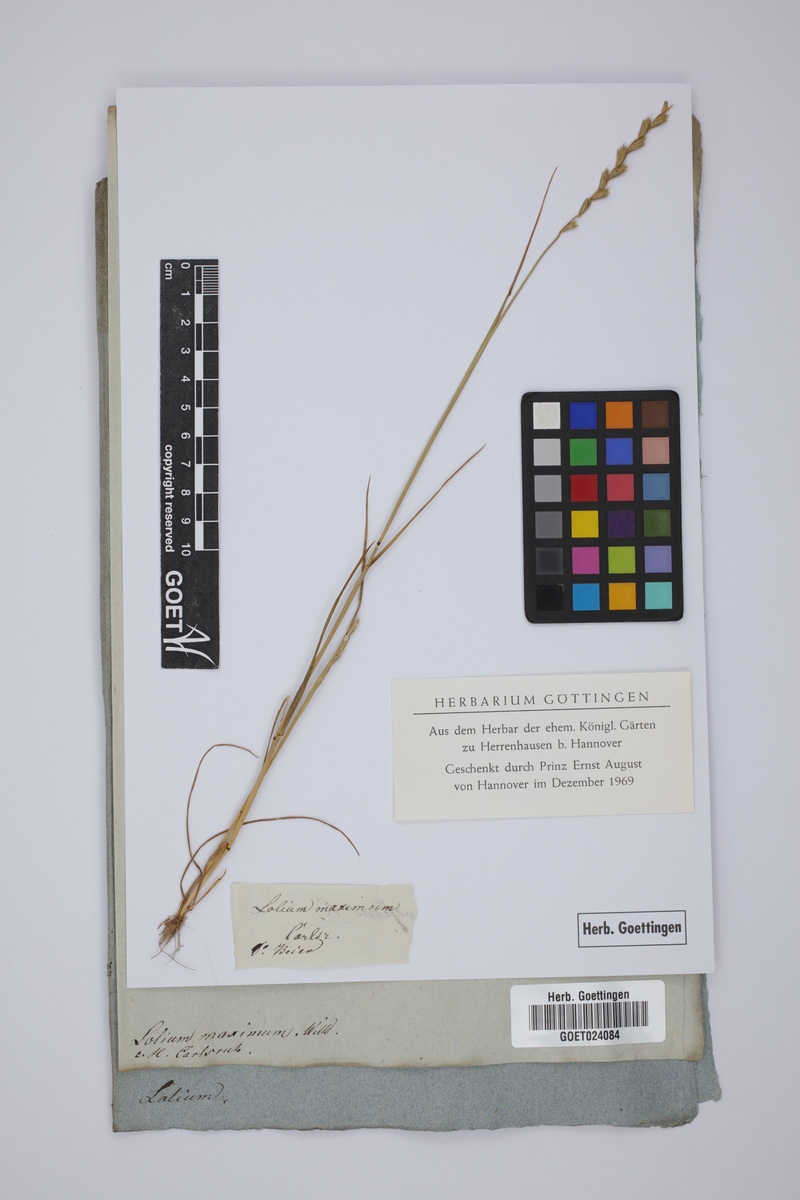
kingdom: Plantae
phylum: Tracheophyta
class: Liliopsida
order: Poales
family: Poaceae
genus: Lolium
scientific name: Lolium temulentum
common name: Darnel
